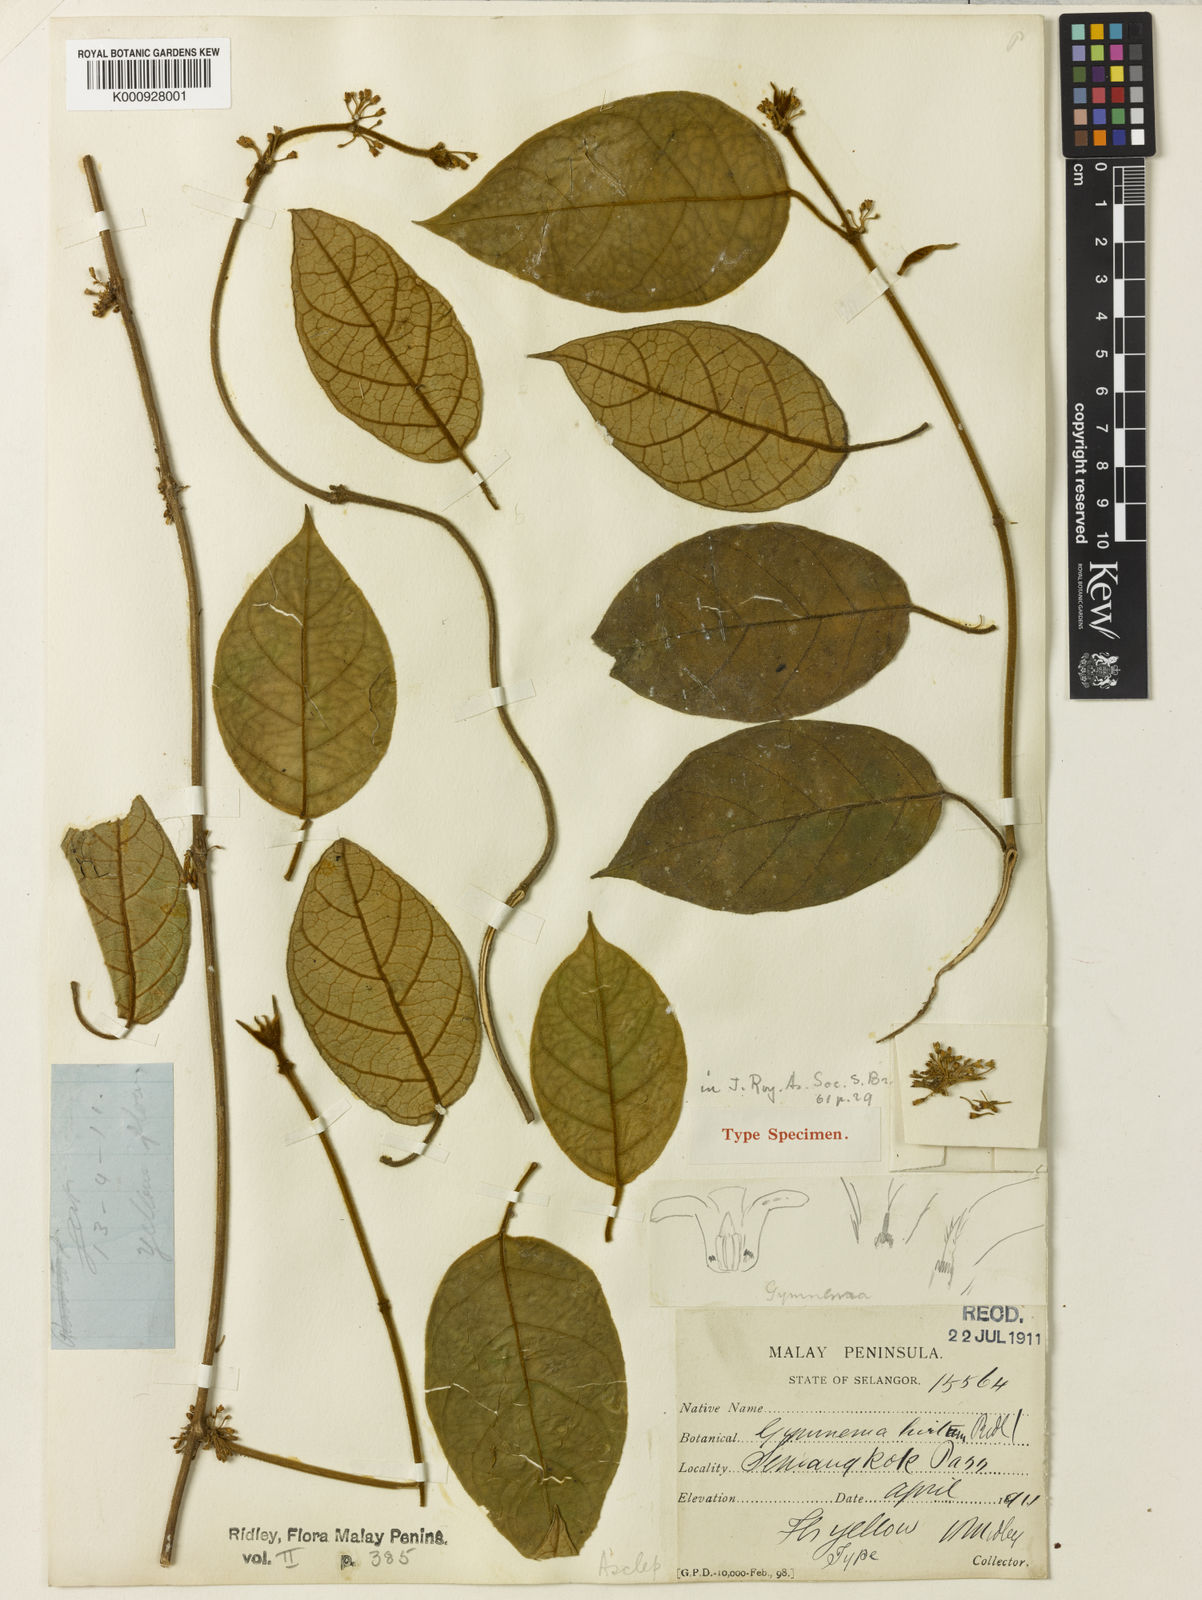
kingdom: Plantae
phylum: Tracheophyta
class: Magnoliopsida
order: Gentianales
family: Apocynaceae
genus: Gymnema
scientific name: Gymnema hirtum
